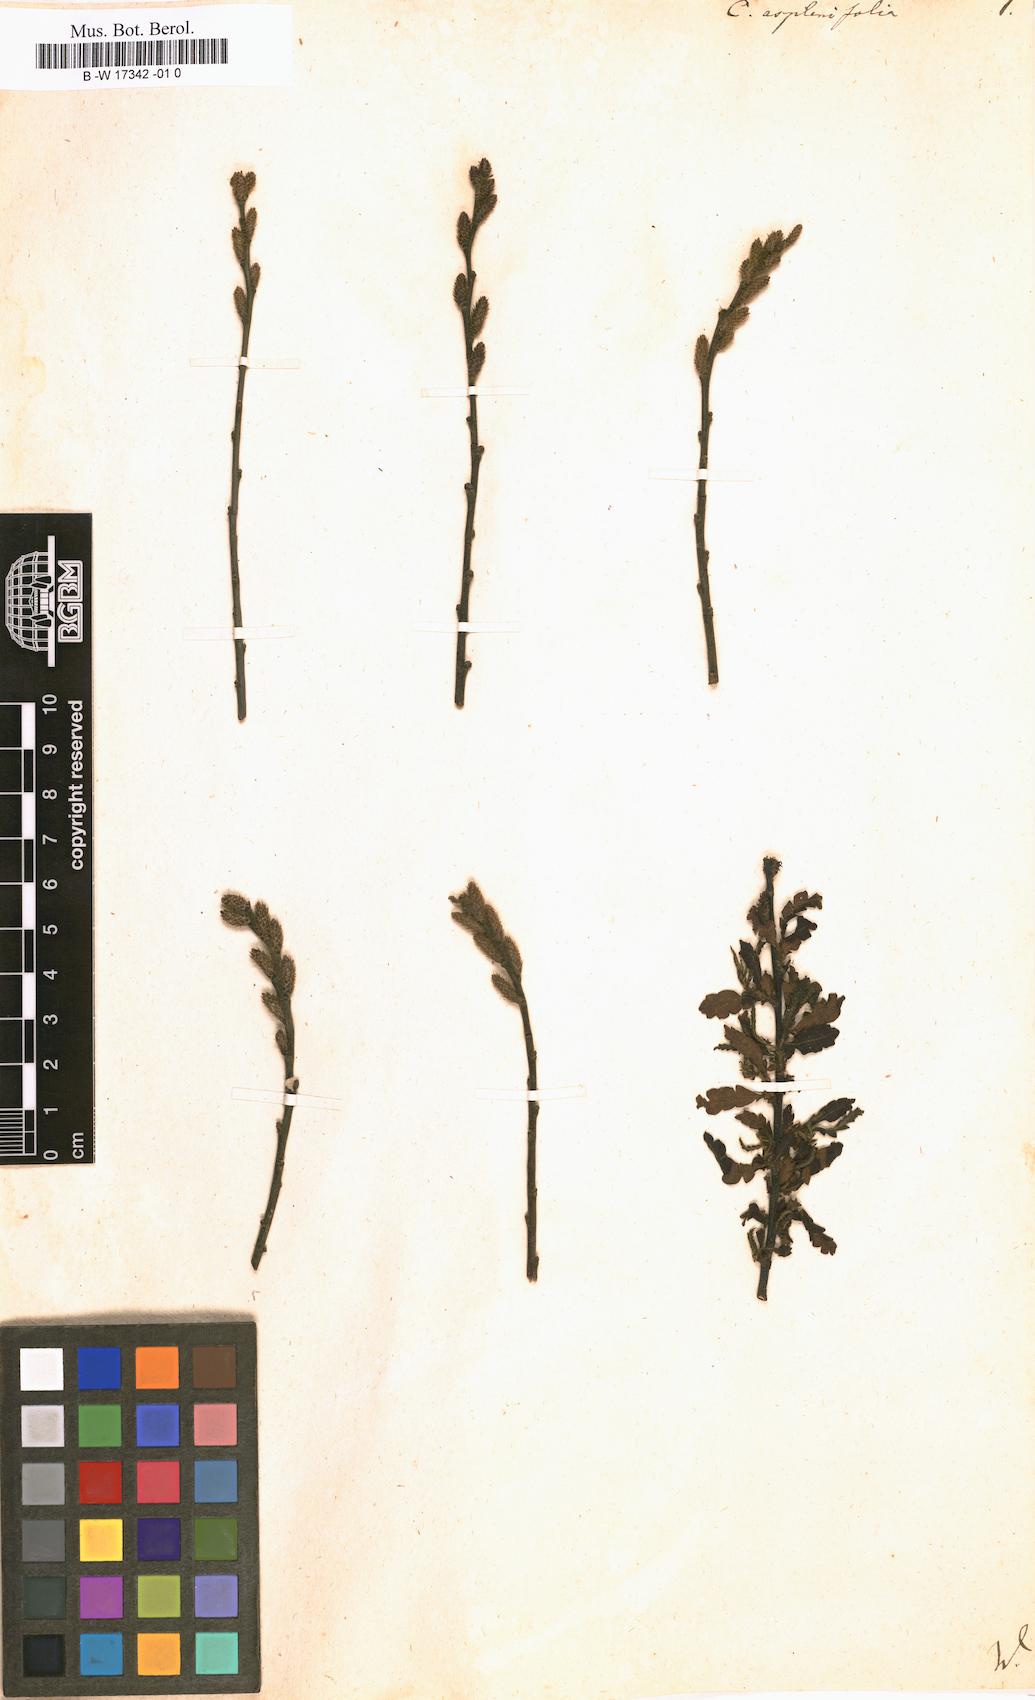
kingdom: Plantae
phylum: Tracheophyta
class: Magnoliopsida
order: Fagales
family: Myricaceae
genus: Comptonia
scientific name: Comptonia aspleniifolia
